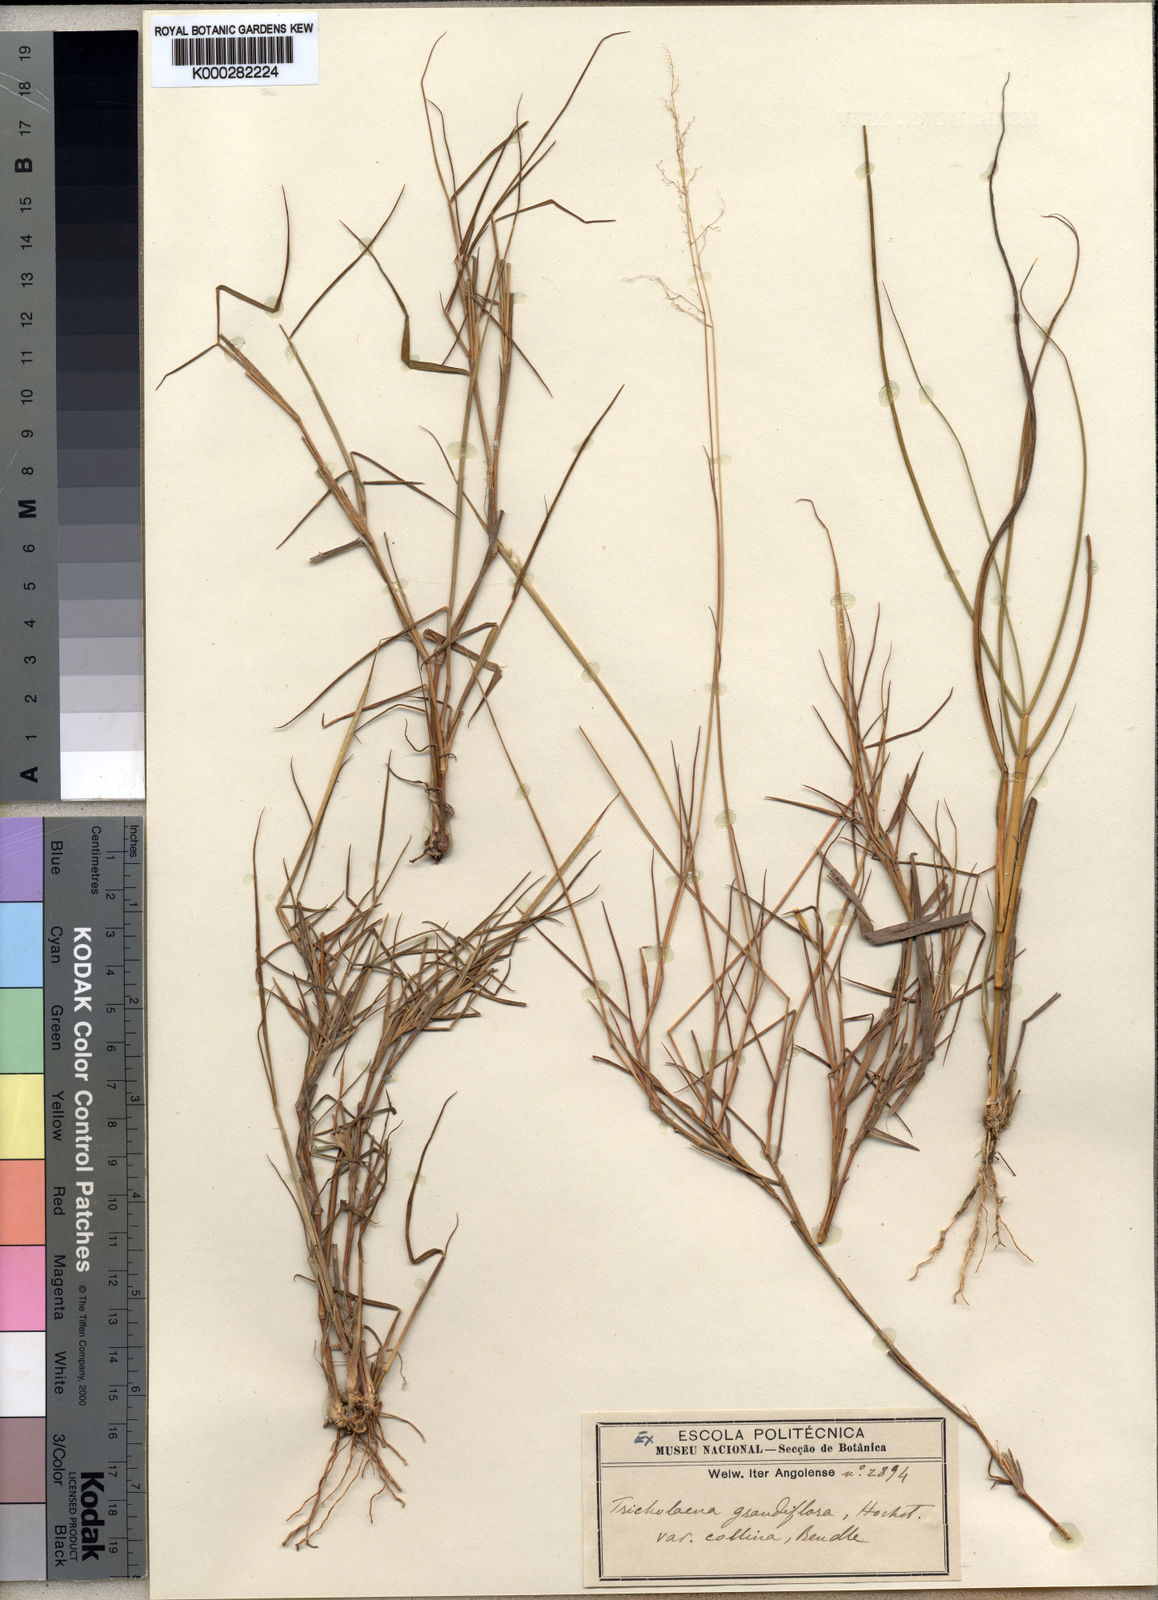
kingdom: Plantae
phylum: Tracheophyta
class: Liliopsida
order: Poales
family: Poaceae
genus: Melinis
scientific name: Melinis repens
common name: Rose natal grass
